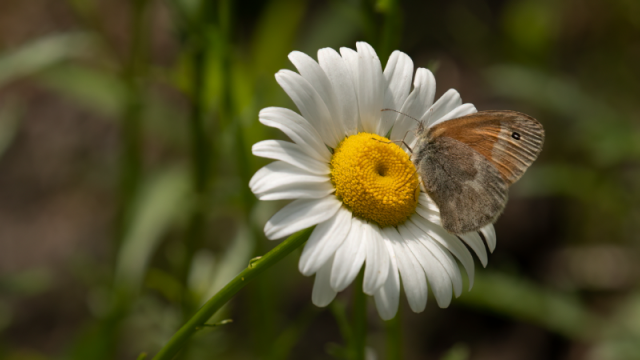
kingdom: Animalia
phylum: Arthropoda
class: Insecta
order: Lepidoptera
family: Nymphalidae
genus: Coenonympha
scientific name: Coenonympha tullia
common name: Large Heath
